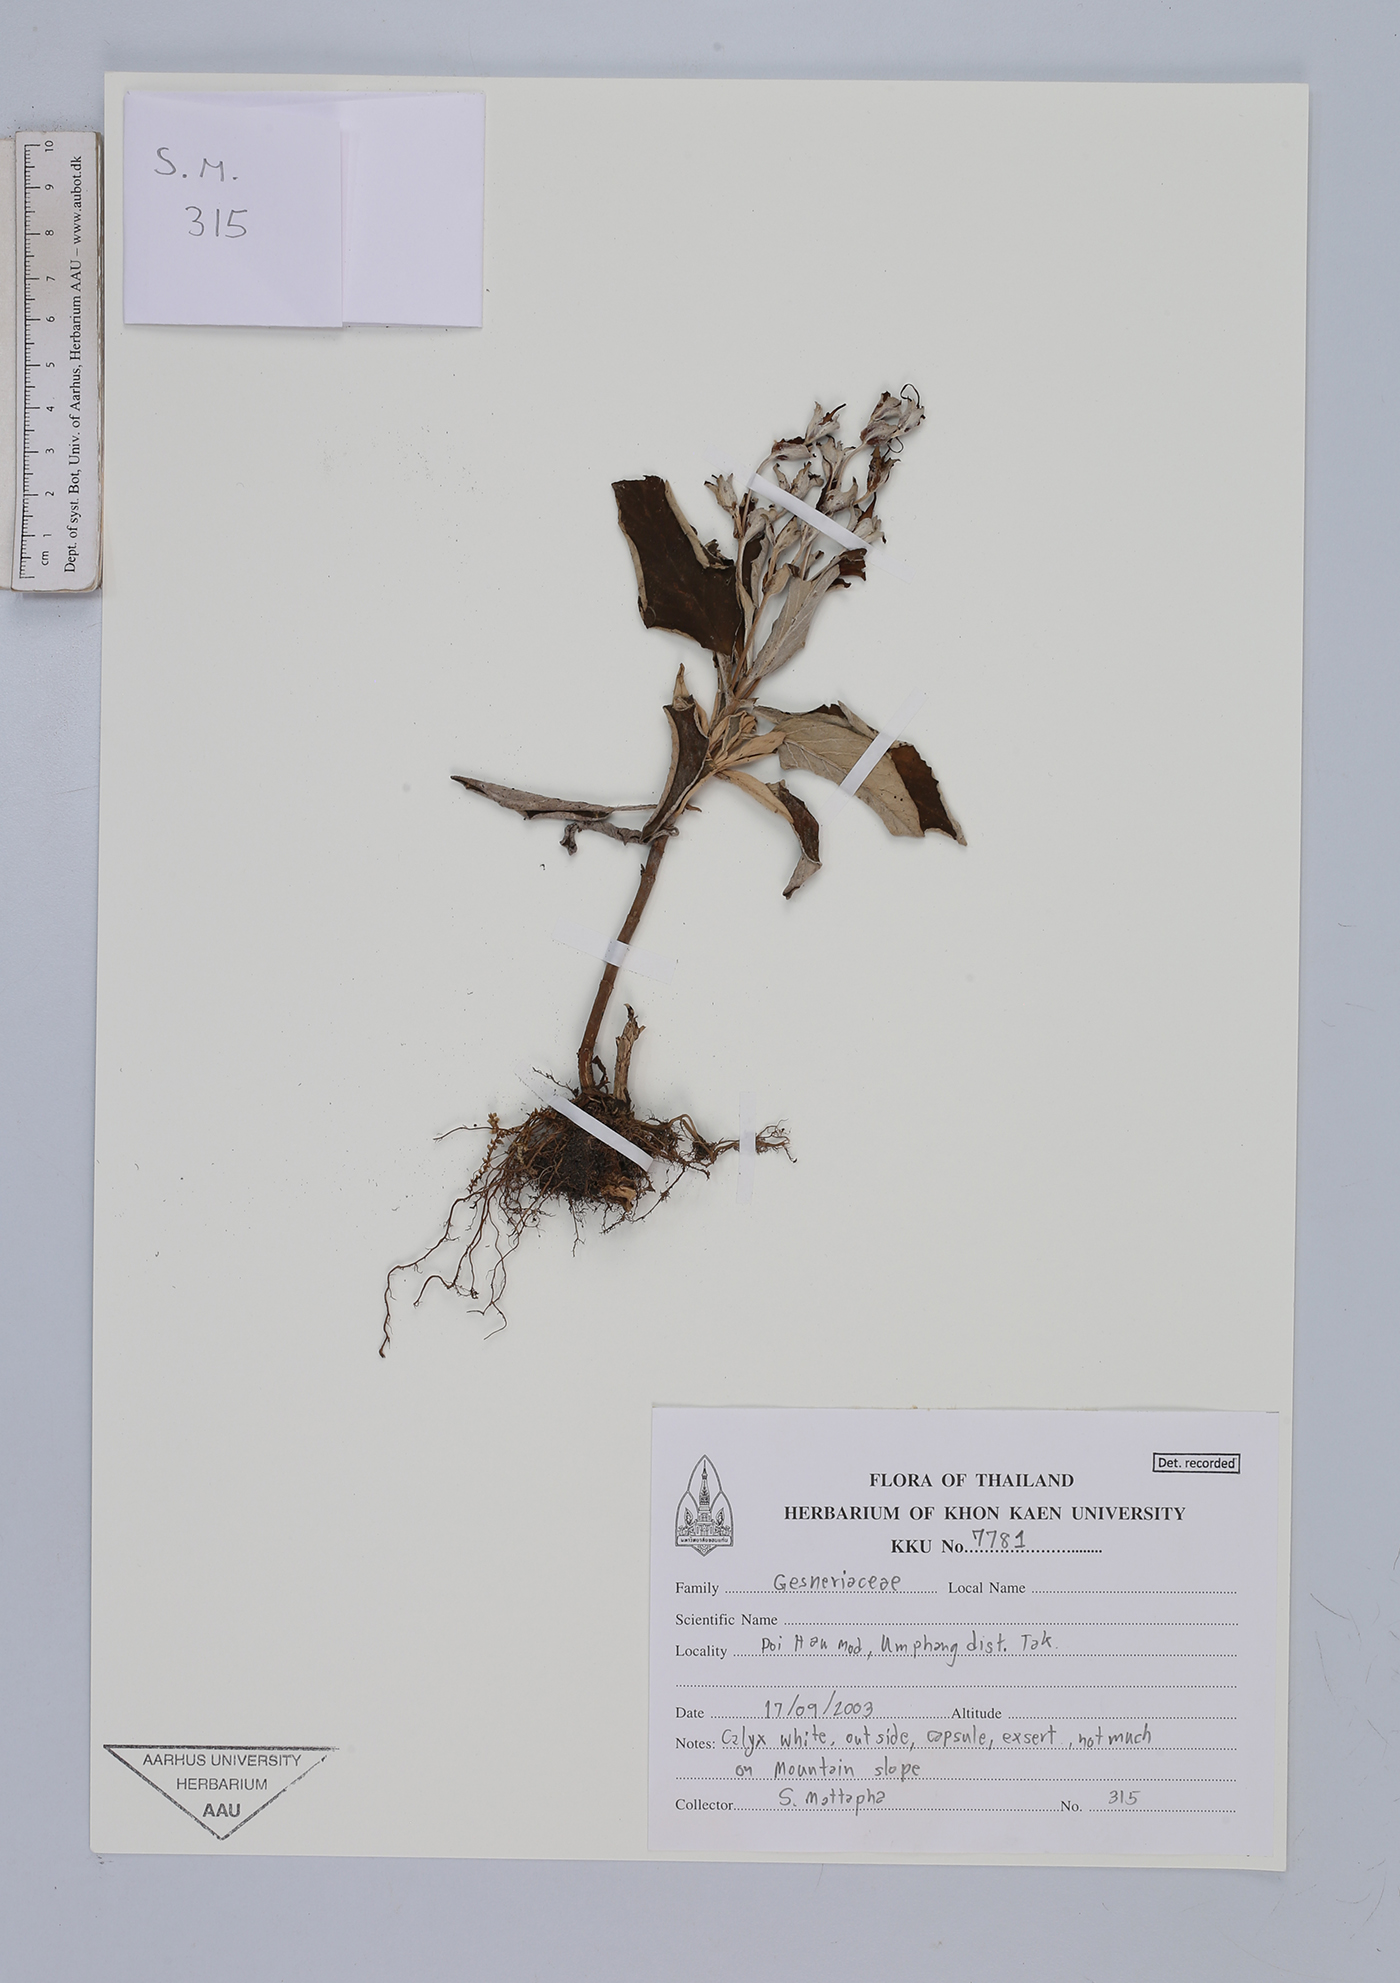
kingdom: Plantae
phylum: Tracheophyta
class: Magnoliopsida
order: Lamiales
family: Gesneriaceae
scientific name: Gesneriaceae
